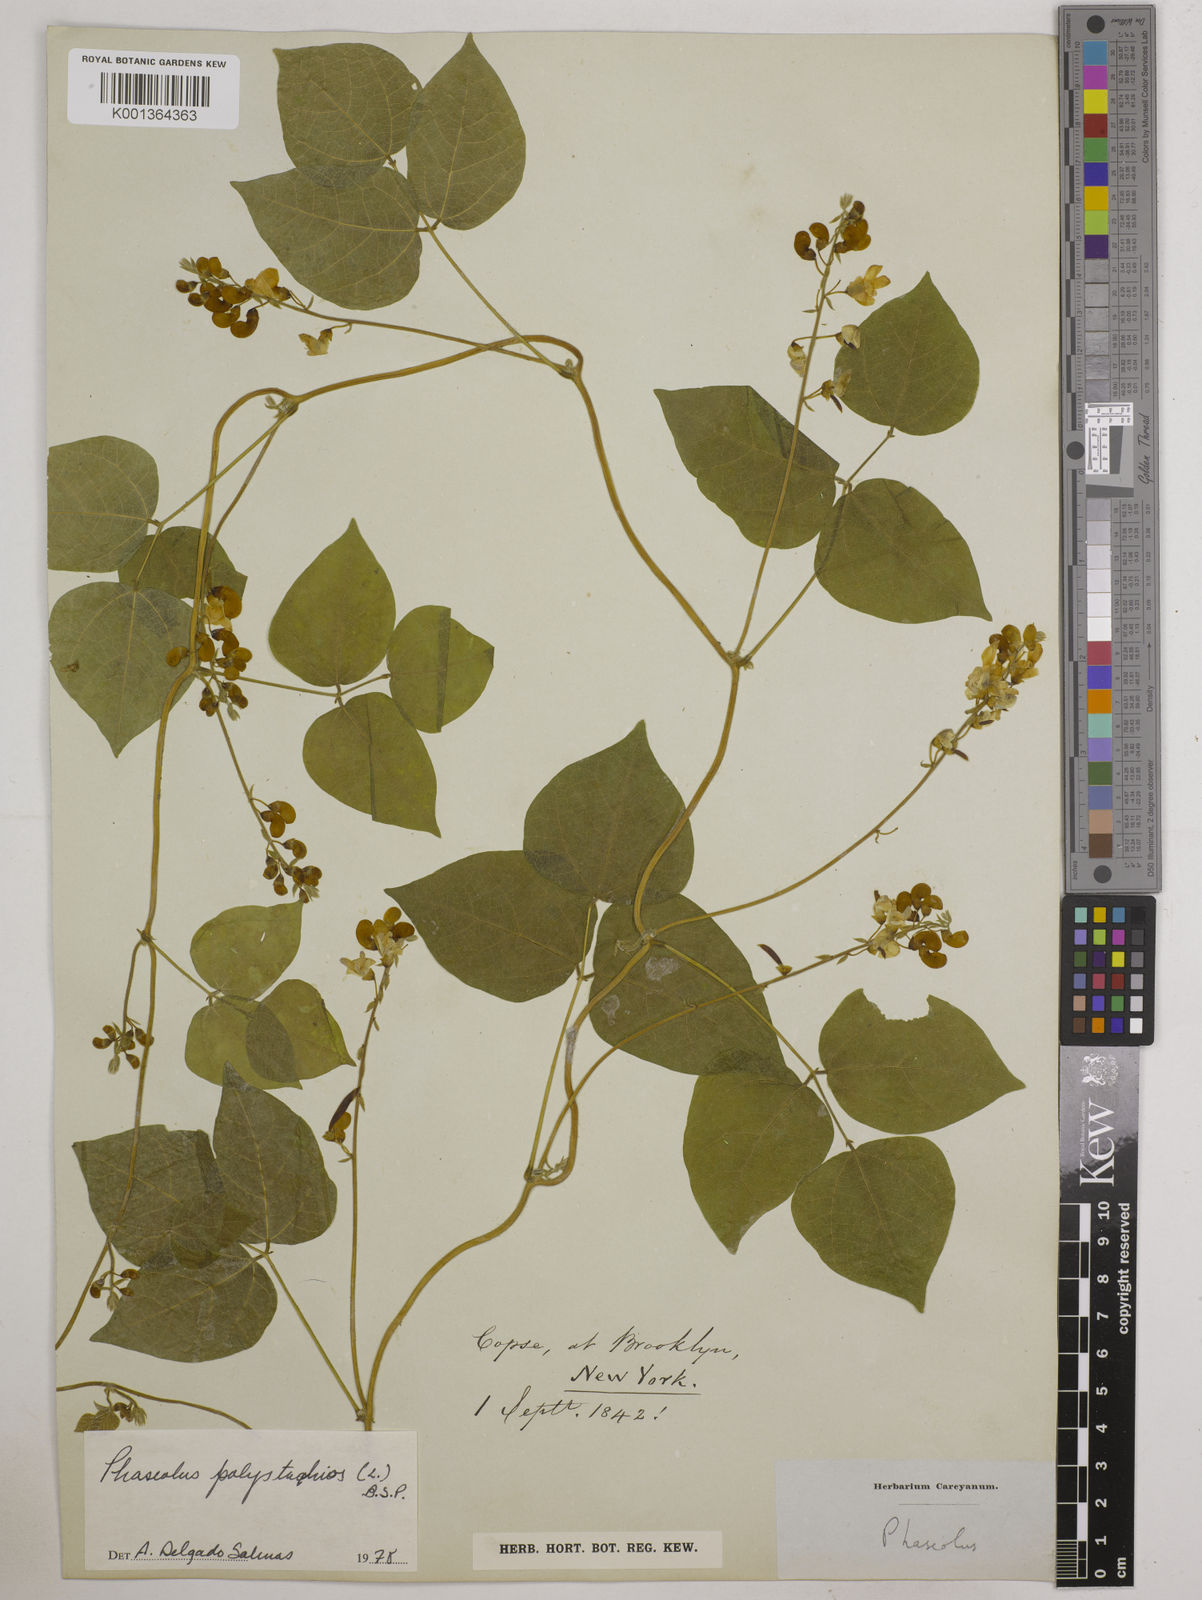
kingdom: Plantae
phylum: Tracheophyta
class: Magnoliopsida
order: Fabales
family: Fabaceae
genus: Phaseolus
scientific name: Phaseolus
